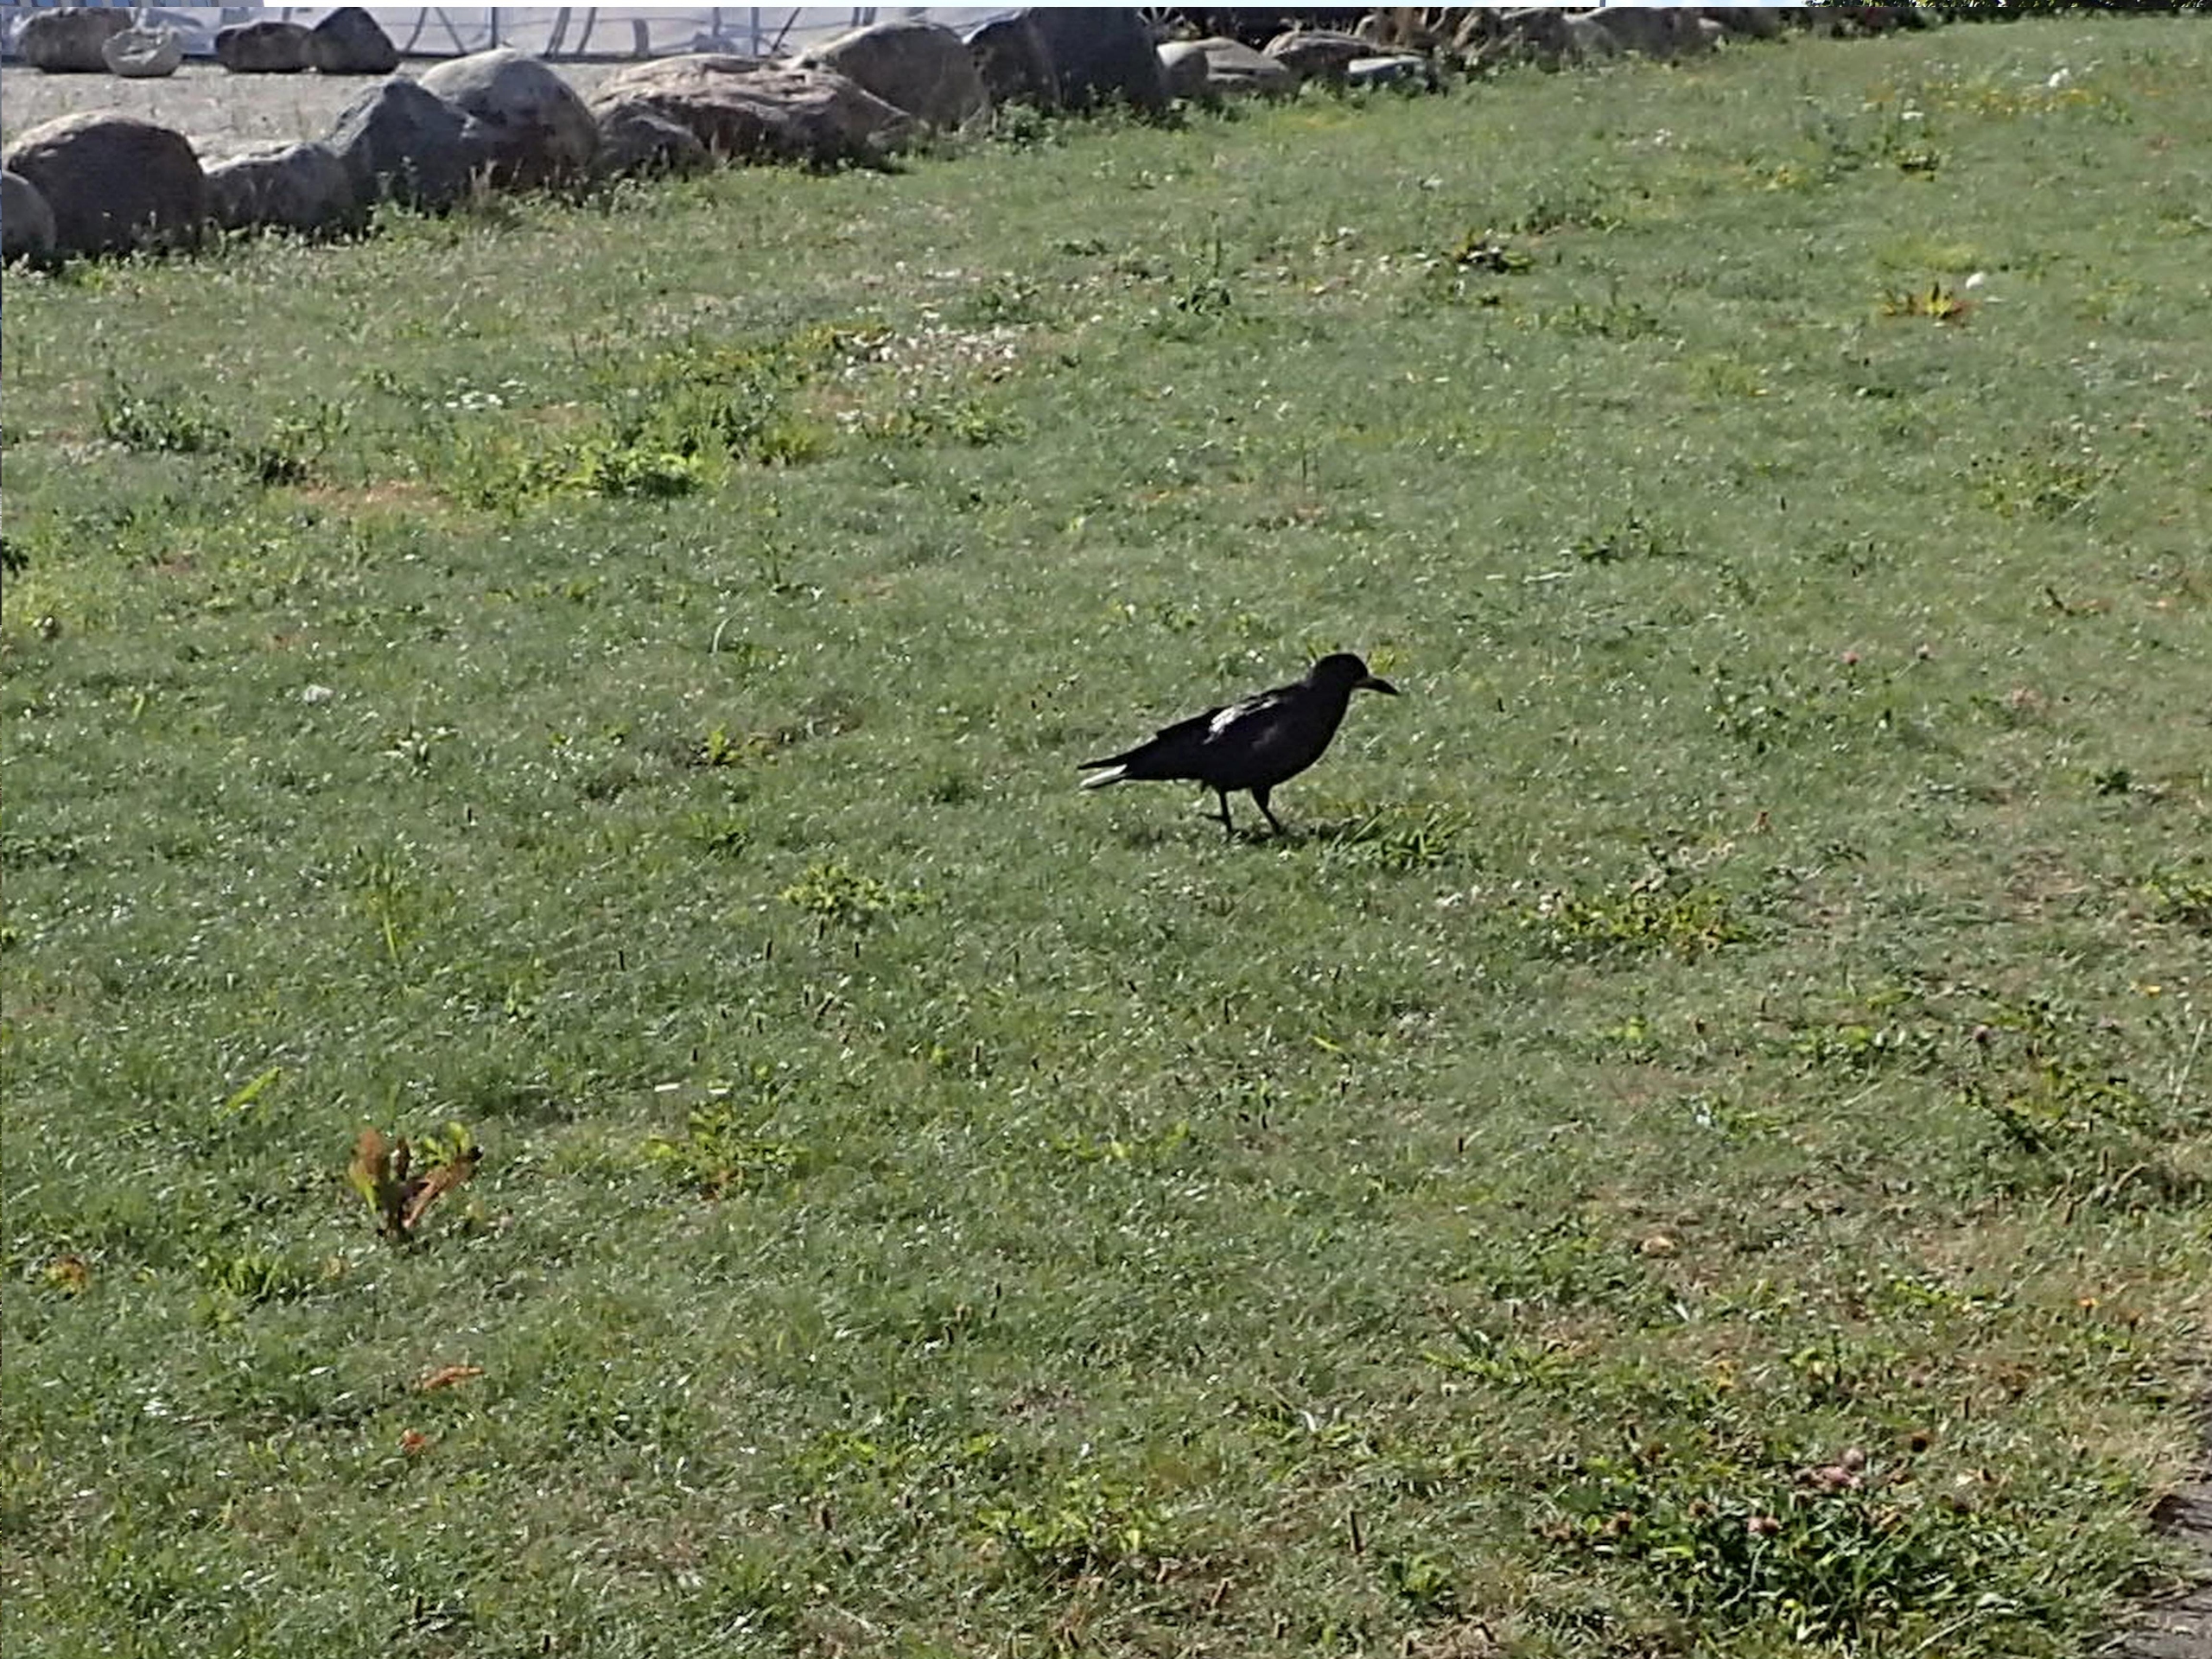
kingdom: Animalia
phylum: Chordata
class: Aves
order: Passeriformes
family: Corvidae
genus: Corvus
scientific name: Corvus frugilegus
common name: Råge
